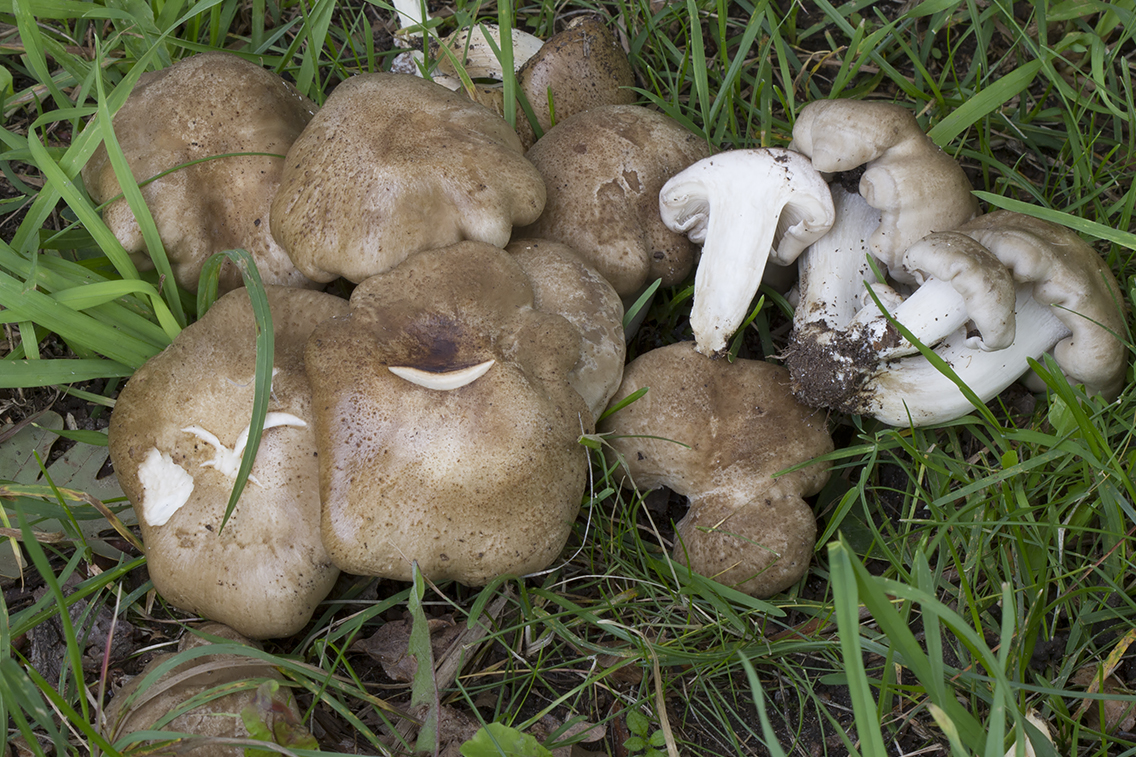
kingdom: Fungi
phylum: Basidiomycota
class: Agaricomycetes
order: Agaricales
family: Lyophyllaceae
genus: Lyophyllum
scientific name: Lyophyllum decastes
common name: Clustered domecap
